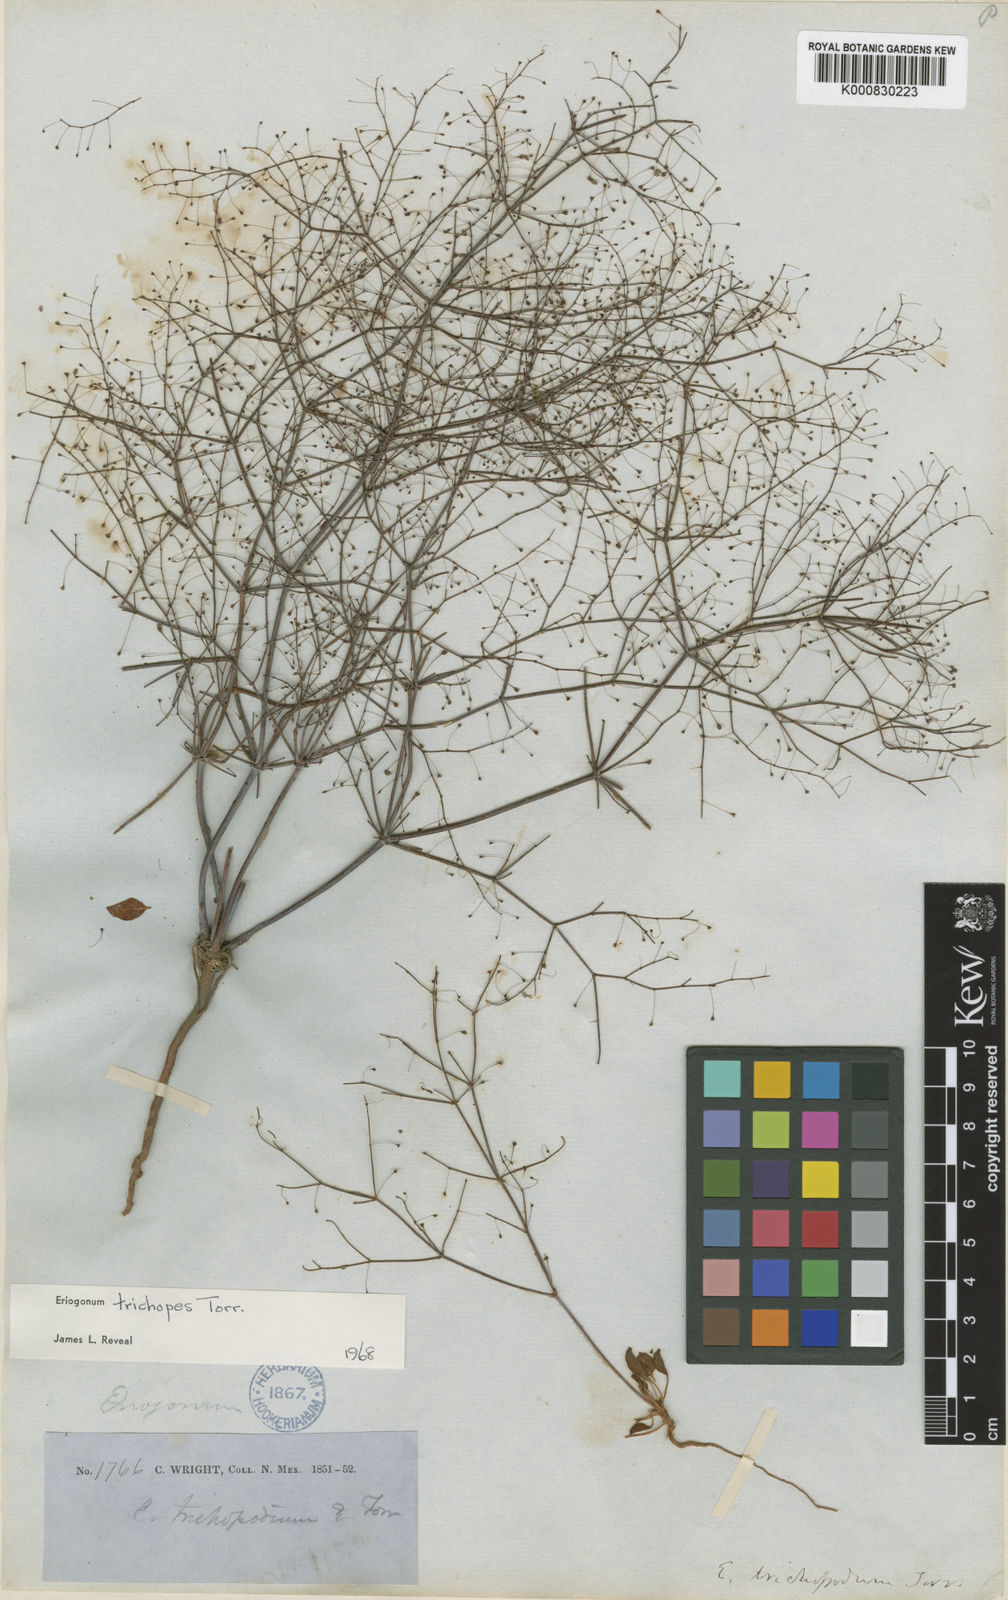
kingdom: Plantae
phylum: Tracheophyta
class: Magnoliopsida
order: Caryophyllales
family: Polygonaceae
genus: Eriogonum
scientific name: Eriogonum trichopes
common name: Little desert trumpet
